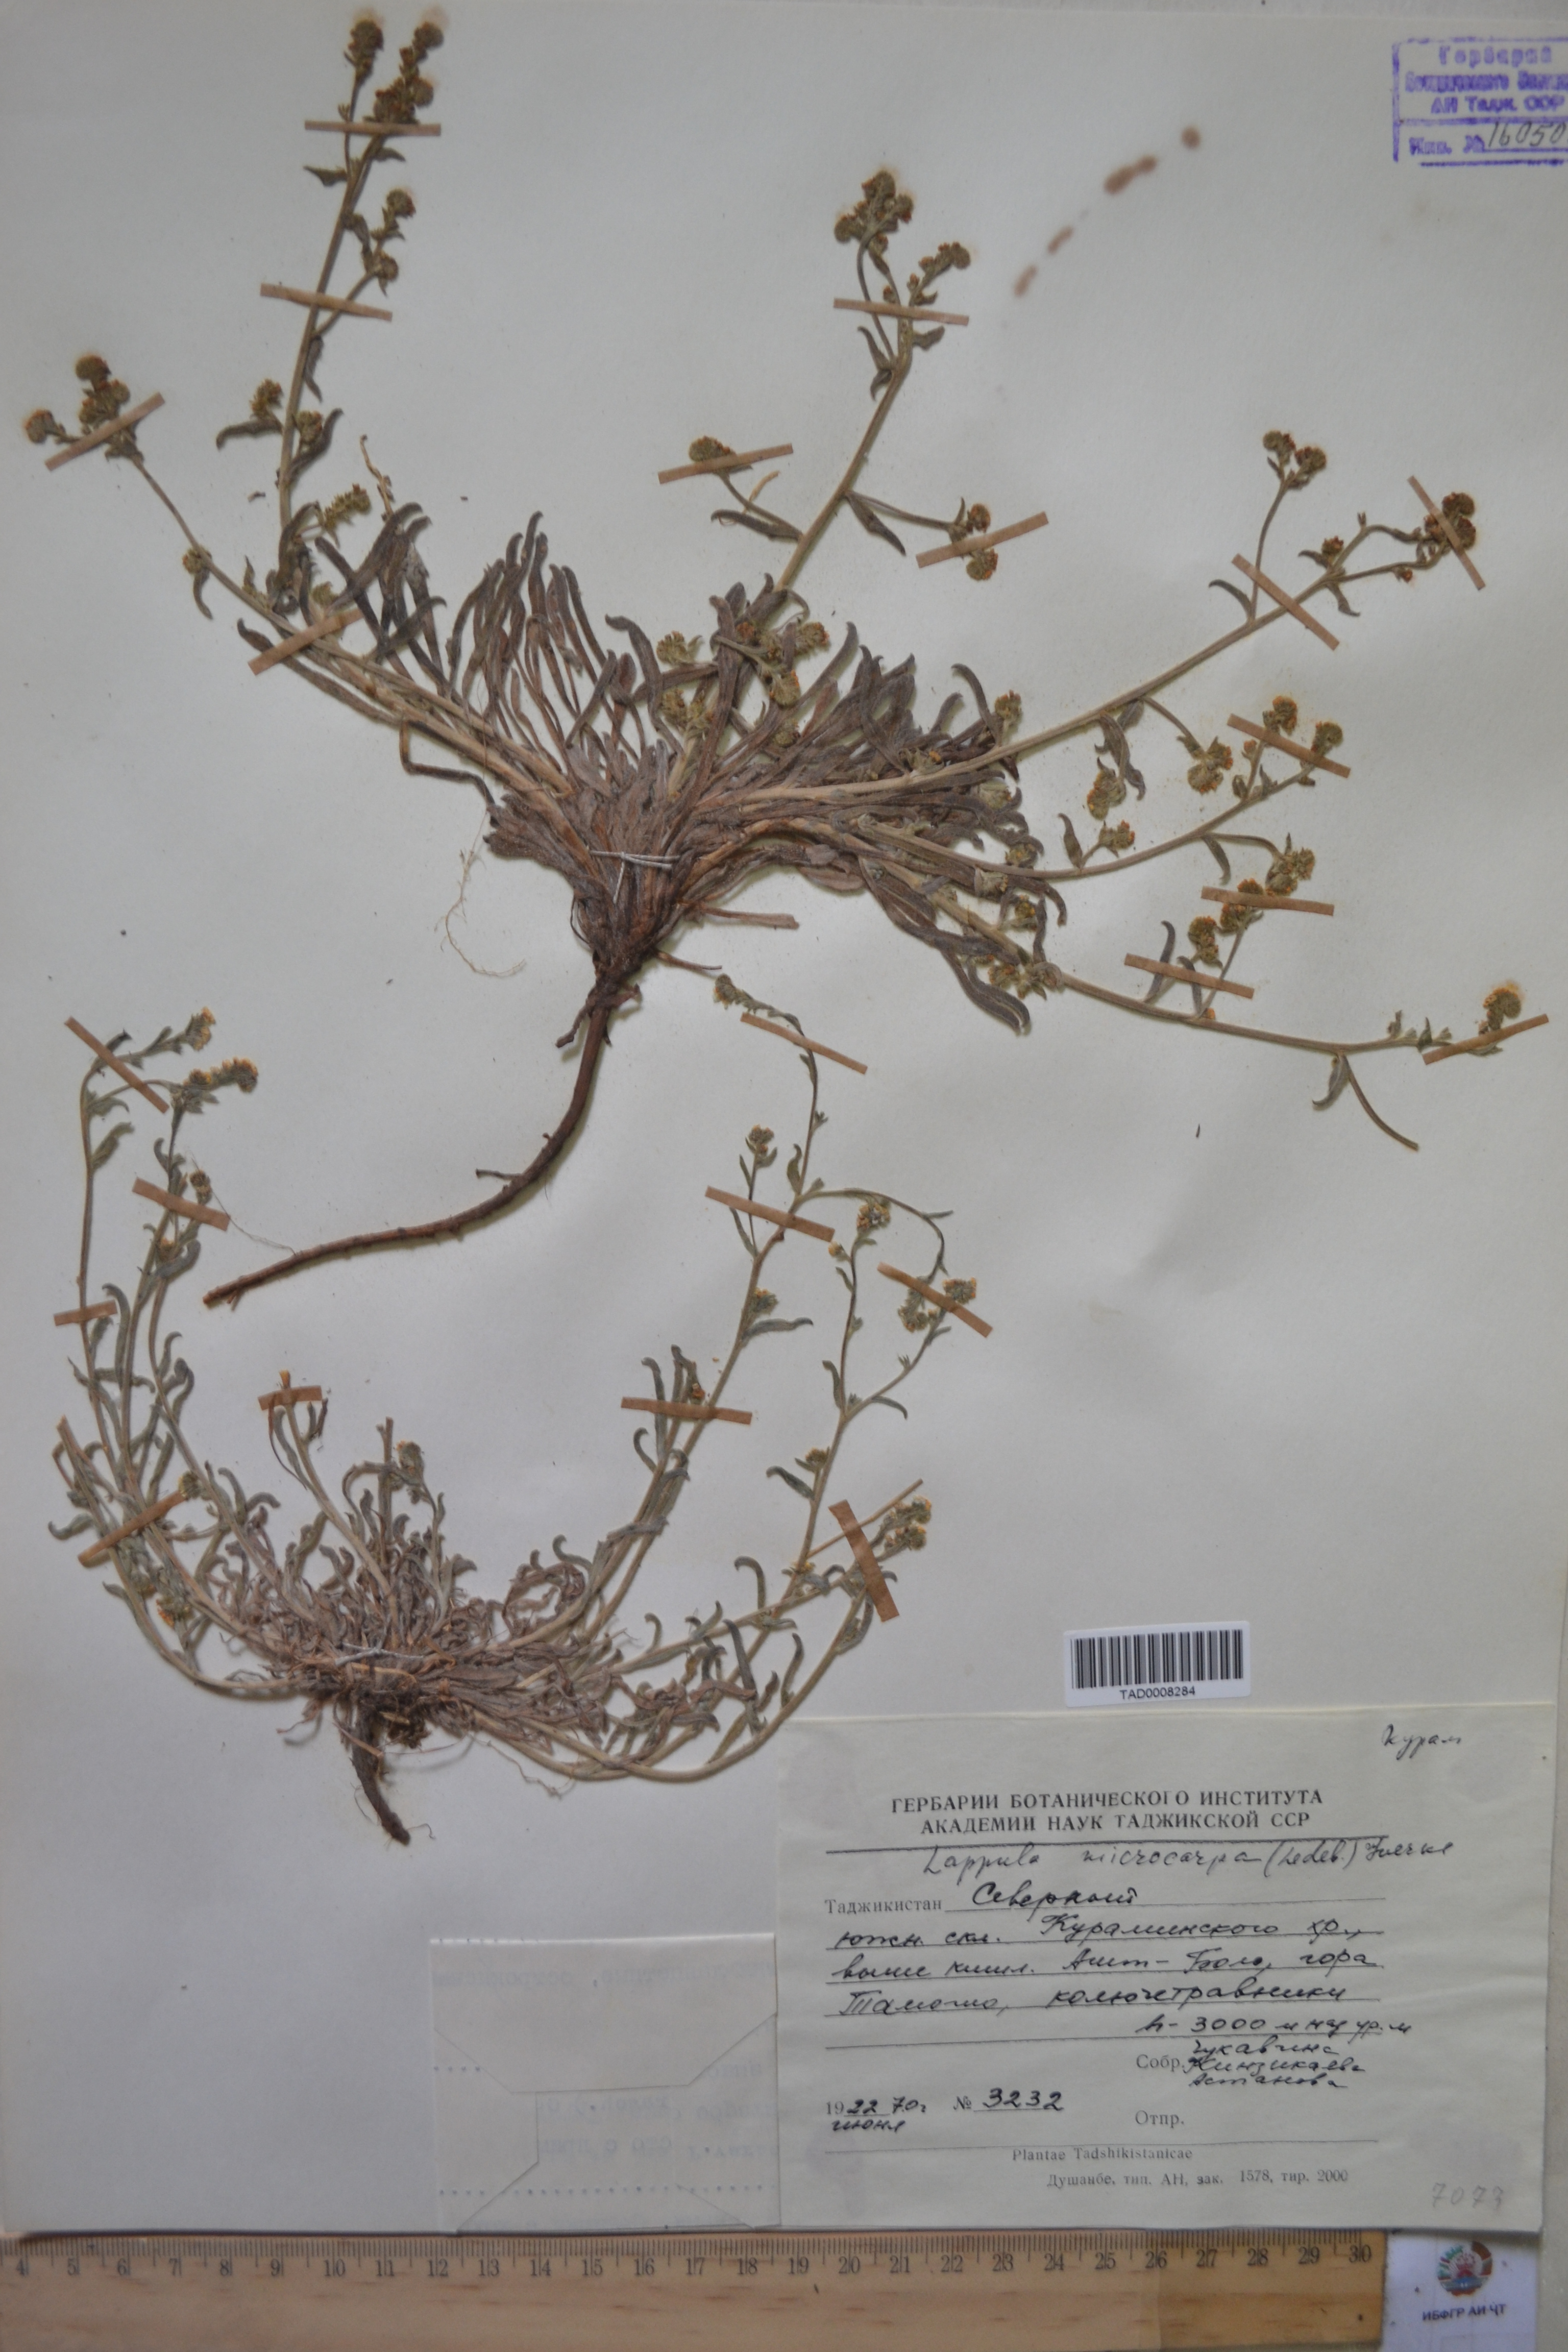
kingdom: Plantae
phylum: Tracheophyta
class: Magnoliopsida
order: Boraginales
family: Boraginaceae
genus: Lappula
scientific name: Lappula microcarpa
